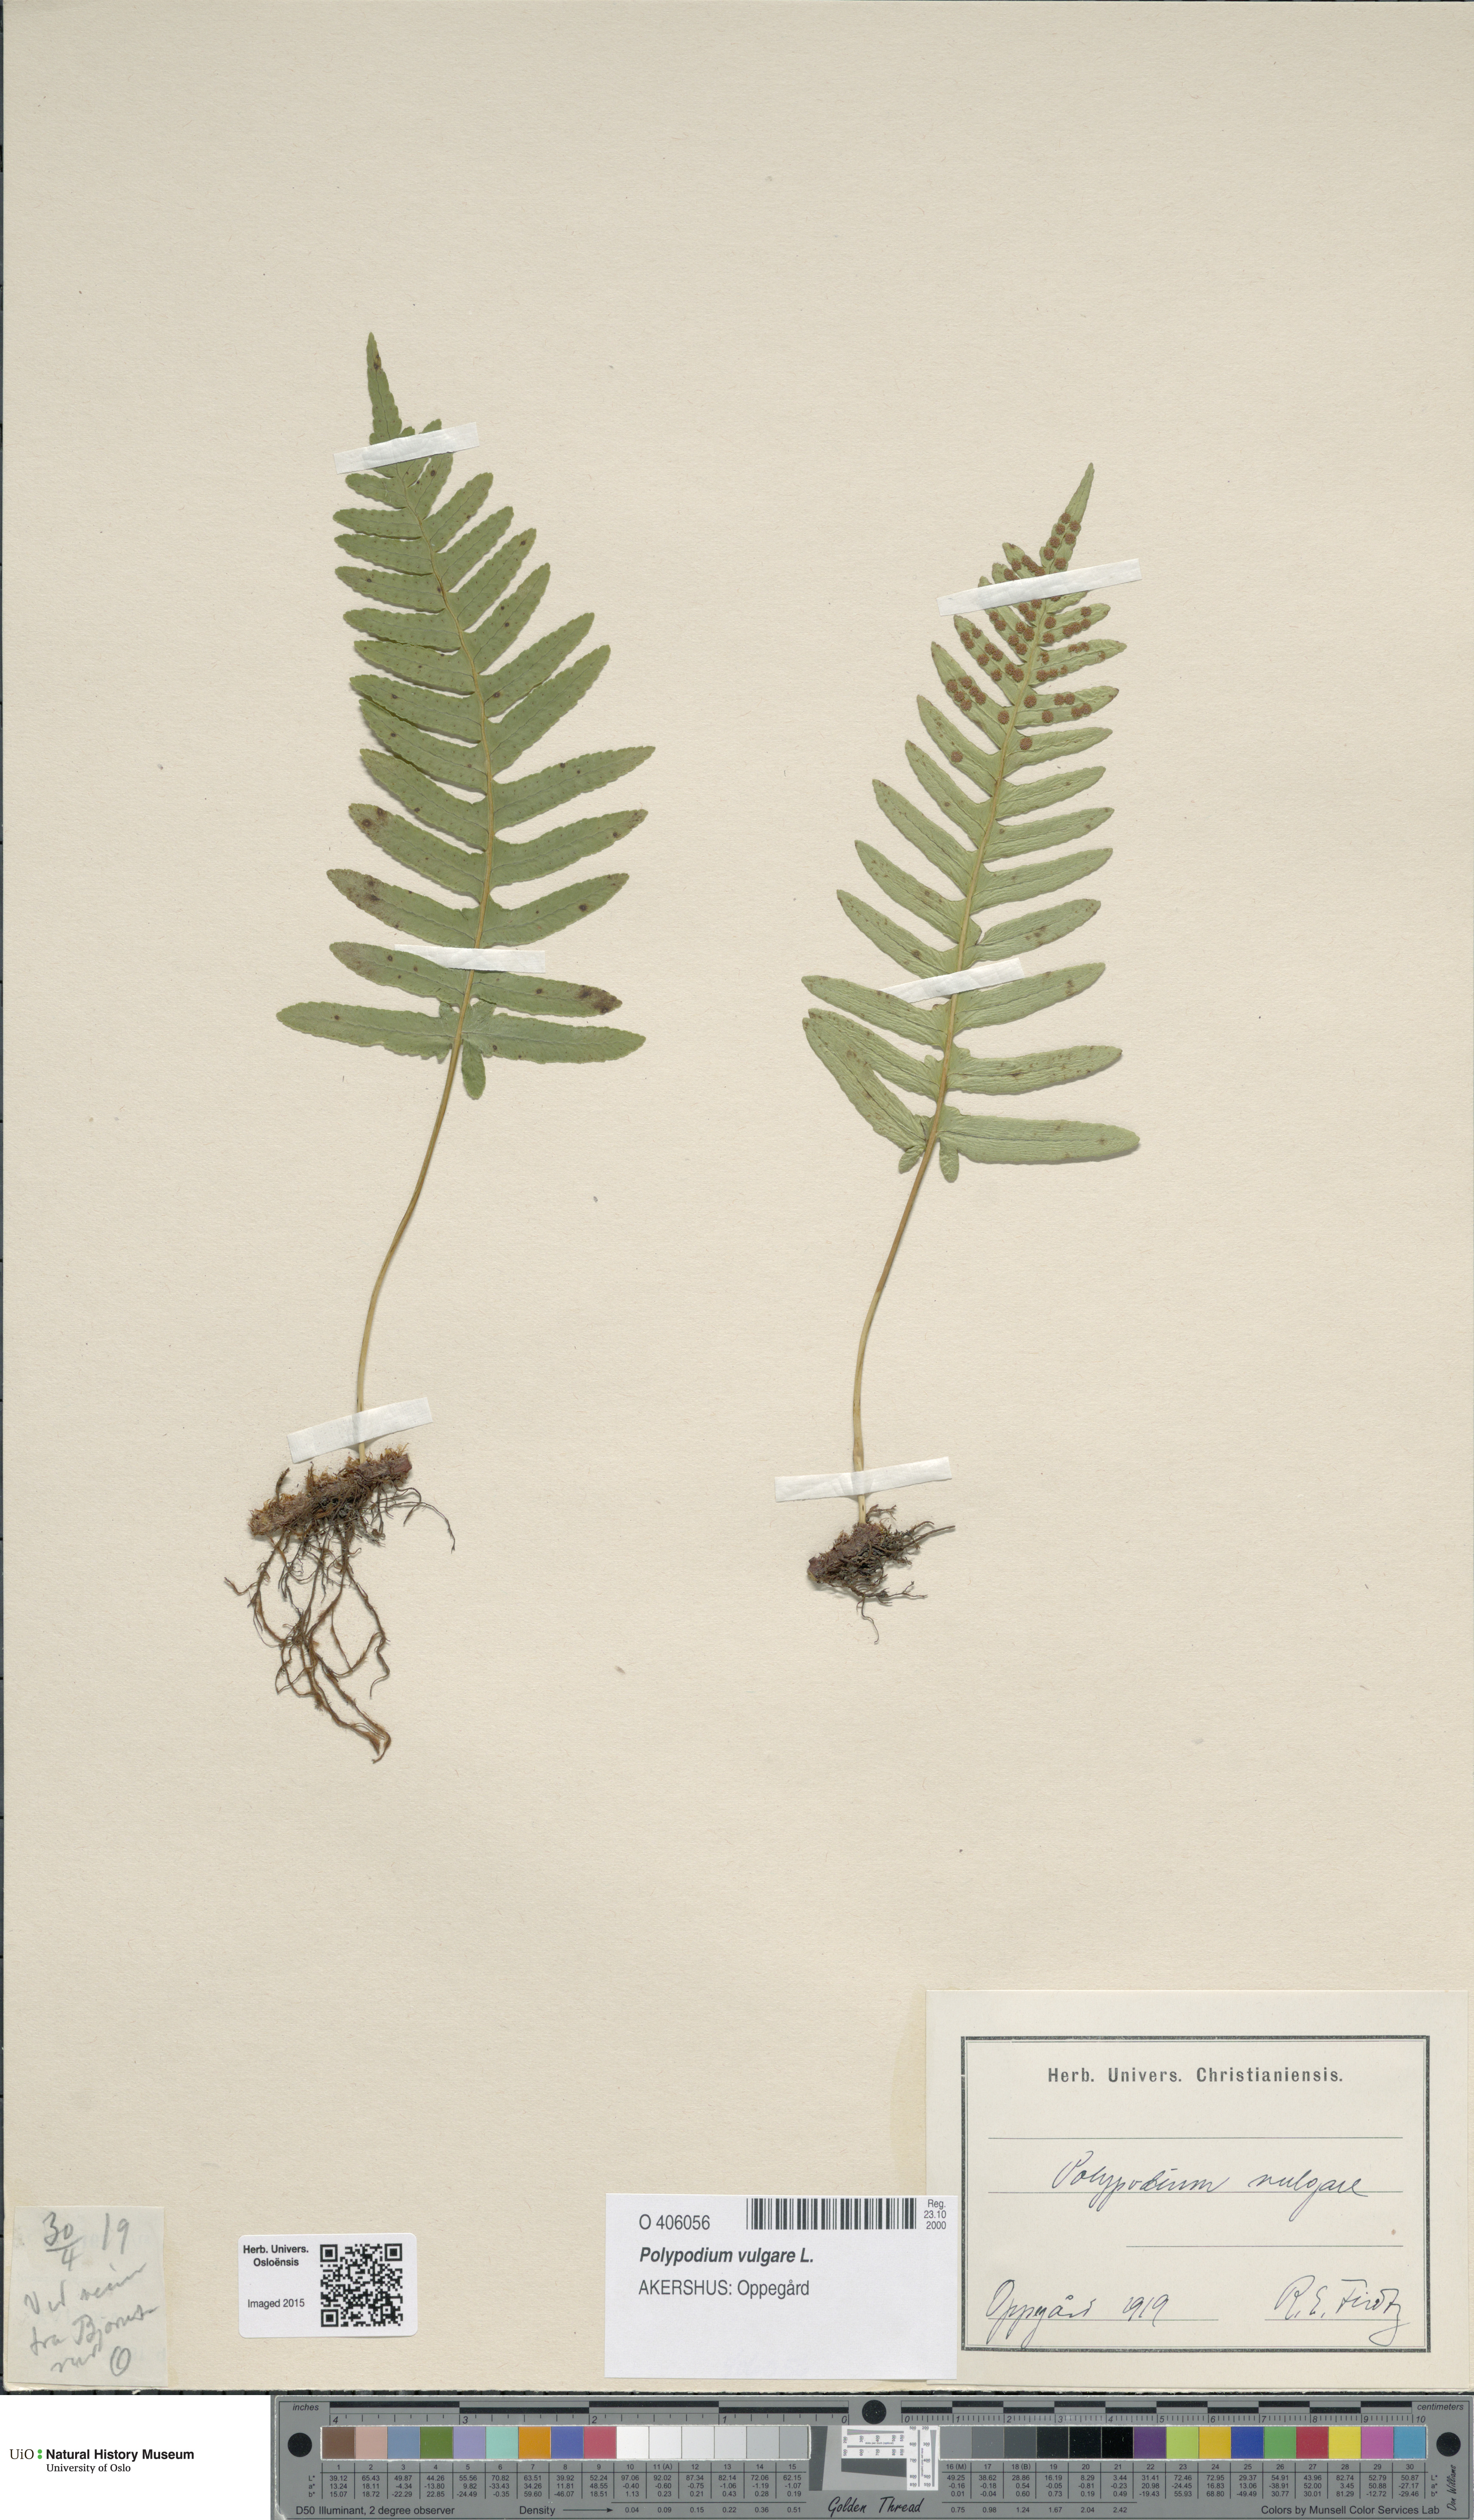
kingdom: Plantae
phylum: Tracheophyta
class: Polypodiopsida
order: Polypodiales
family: Polypodiaceae
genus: Polypodium
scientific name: Polypodium vulgare
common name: Common polypody
